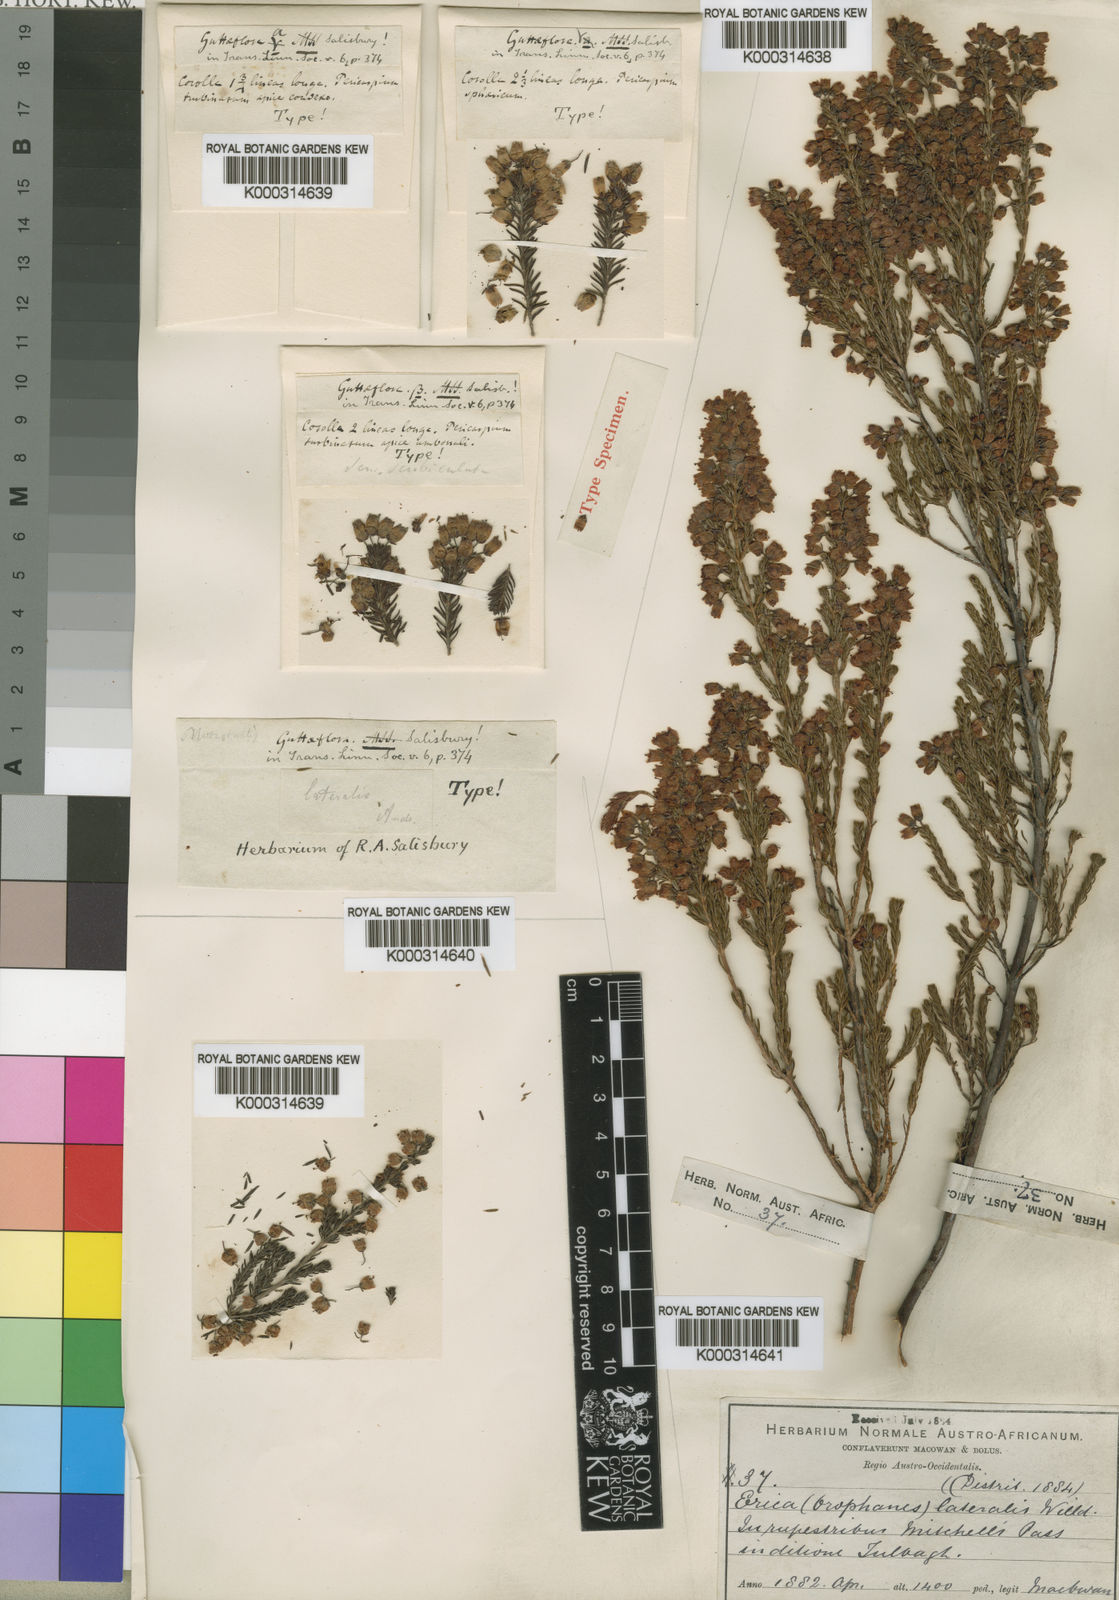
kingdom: Plantae
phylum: Tracheophyta
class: Magnoliopsida
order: Ericales
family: Ericaceae
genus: Erica
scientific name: Erica lateralis
